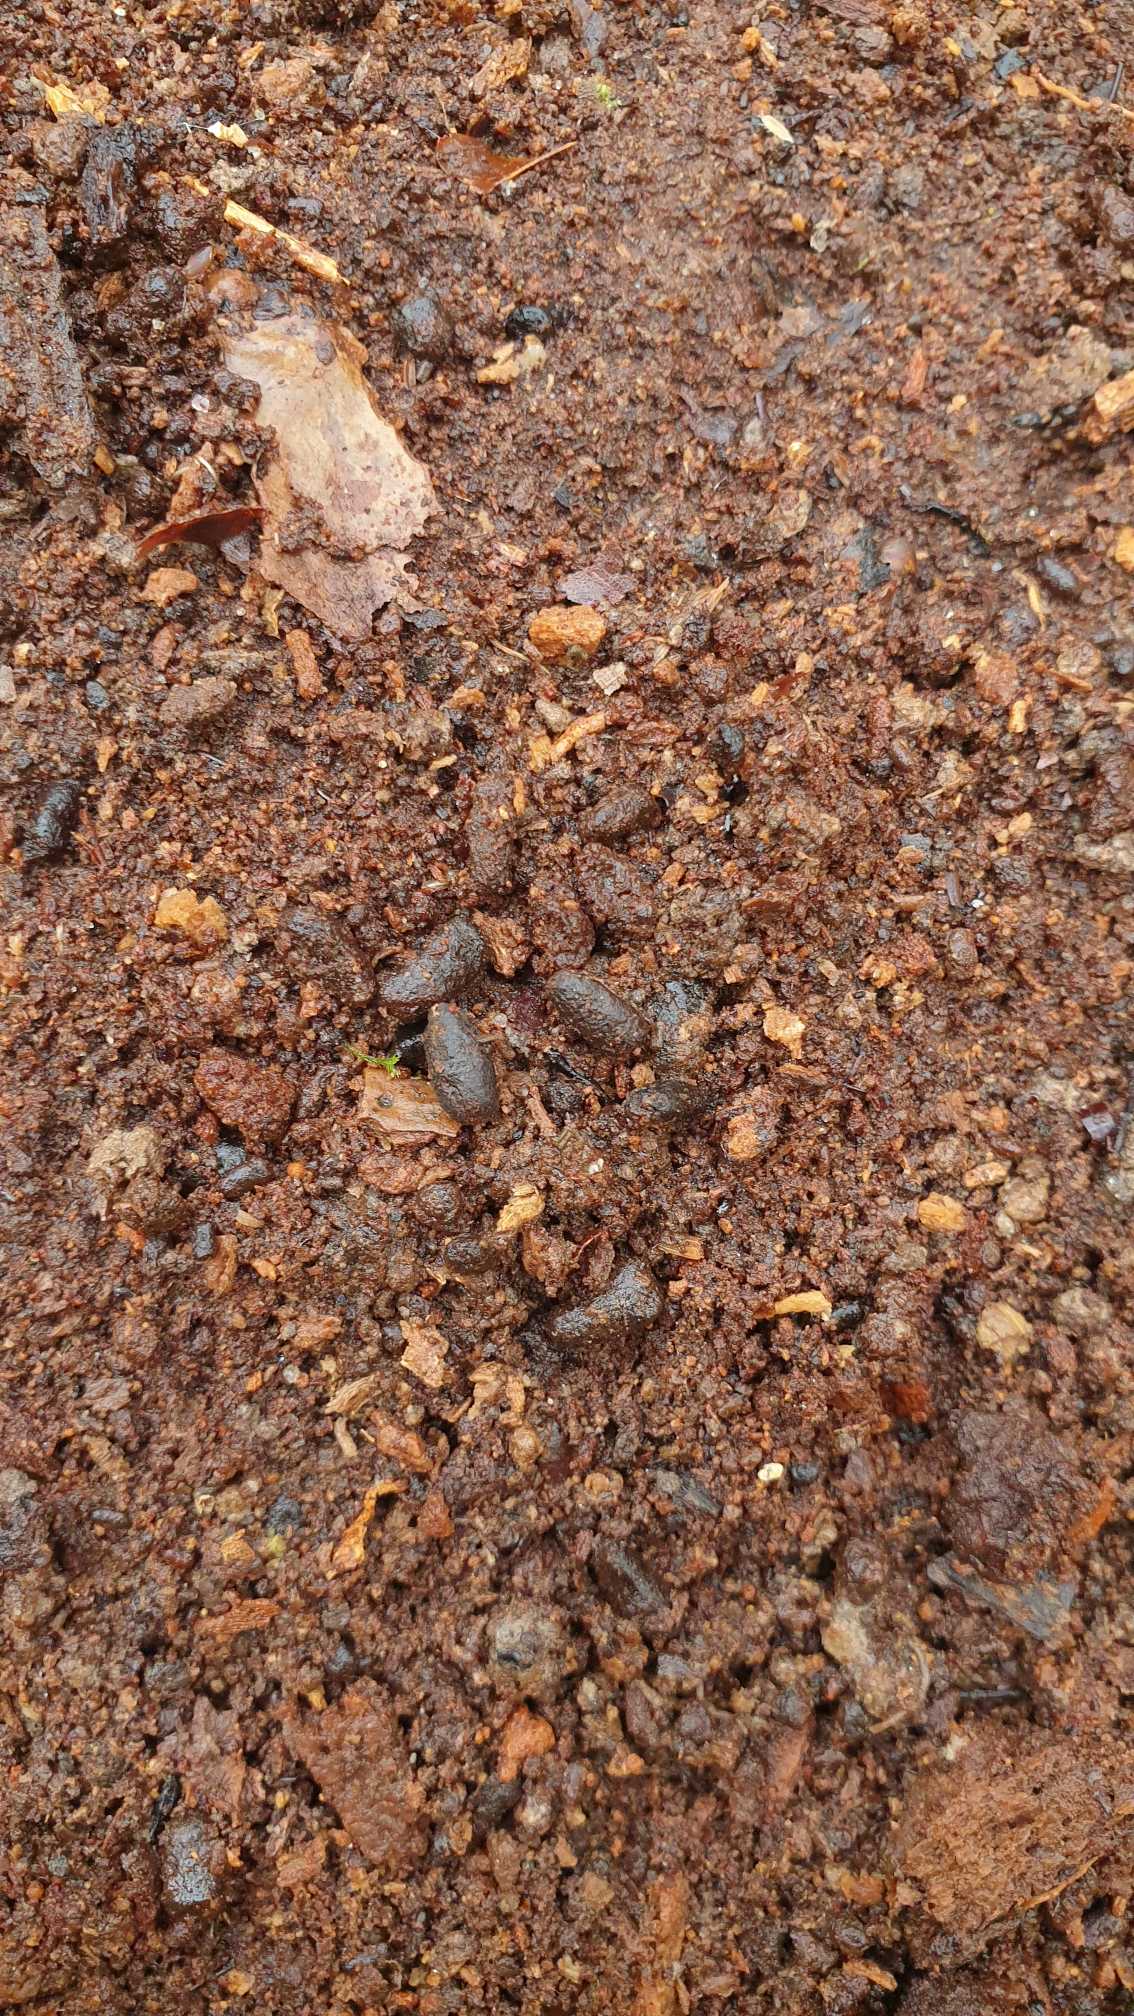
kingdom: Animalia
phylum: Arthropoda
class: Insecta
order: Coleoptera
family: Scarabaeidae
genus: Osmoderma
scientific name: Osmoderma eremita
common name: Eremit
